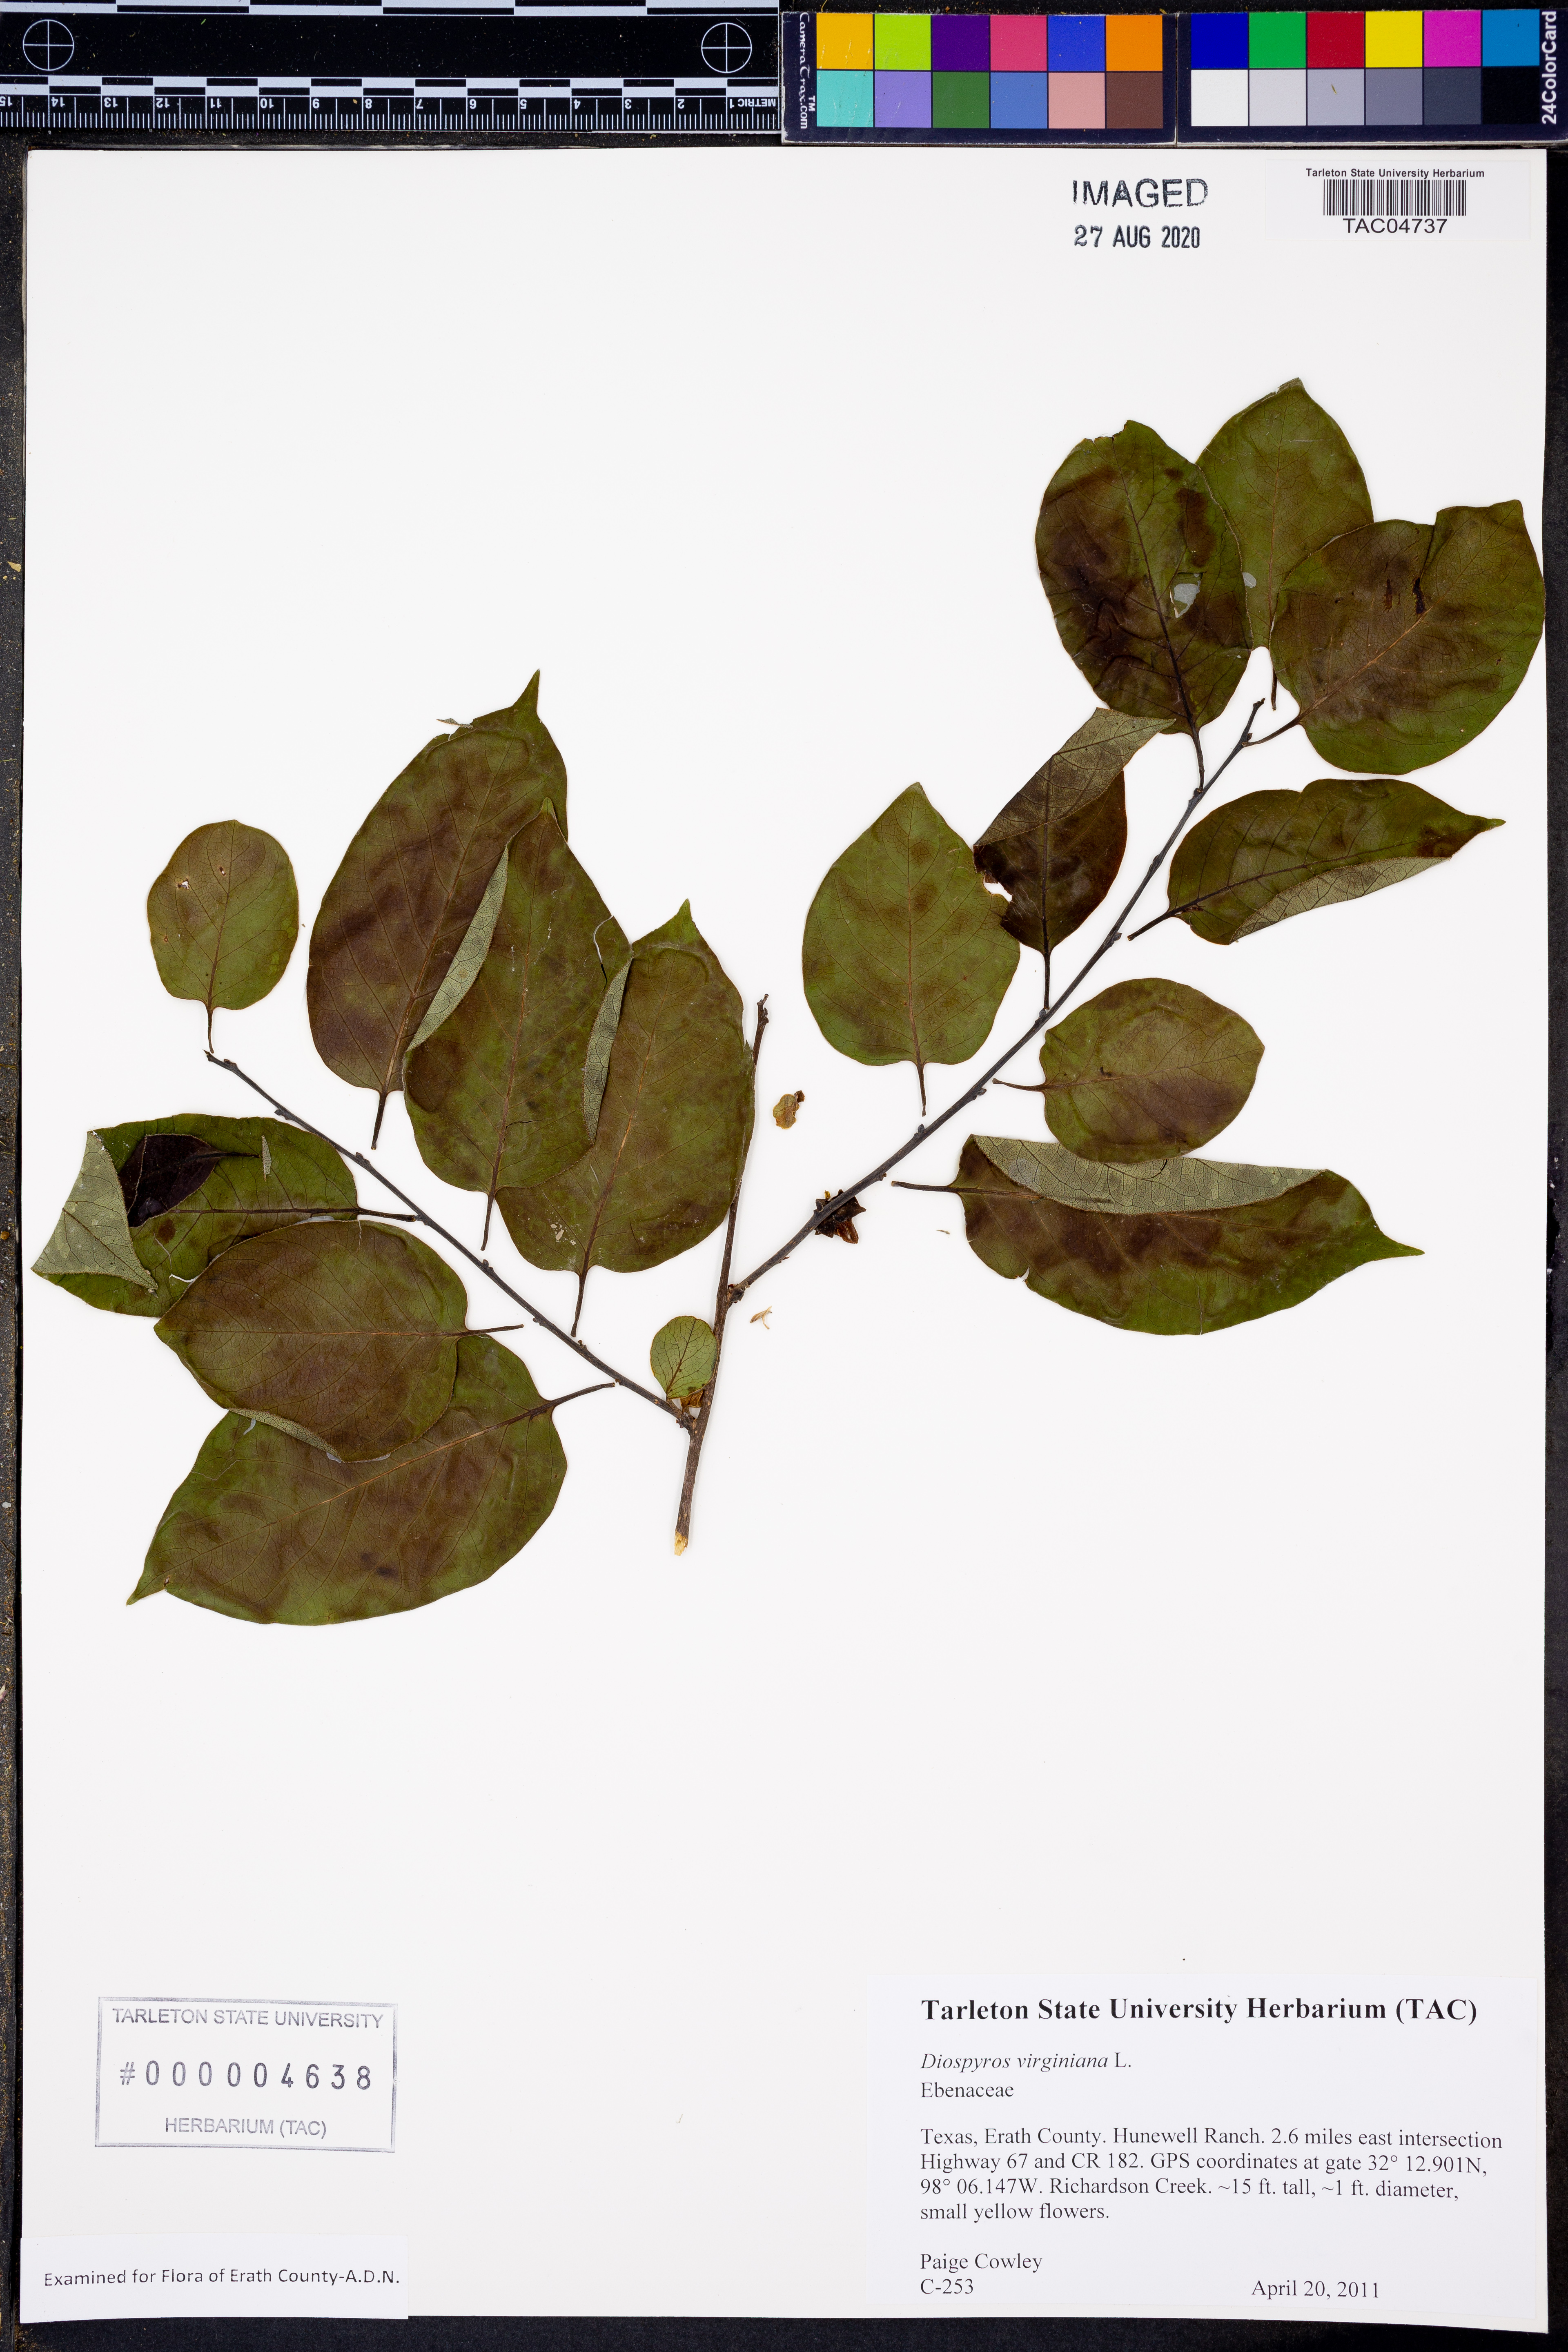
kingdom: Plantae
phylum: Tracheophyta
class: Magnoliopsida
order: Ericales
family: Ebenaceae
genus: Diospyros
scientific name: Diospyros virginiana
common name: Persimmon
